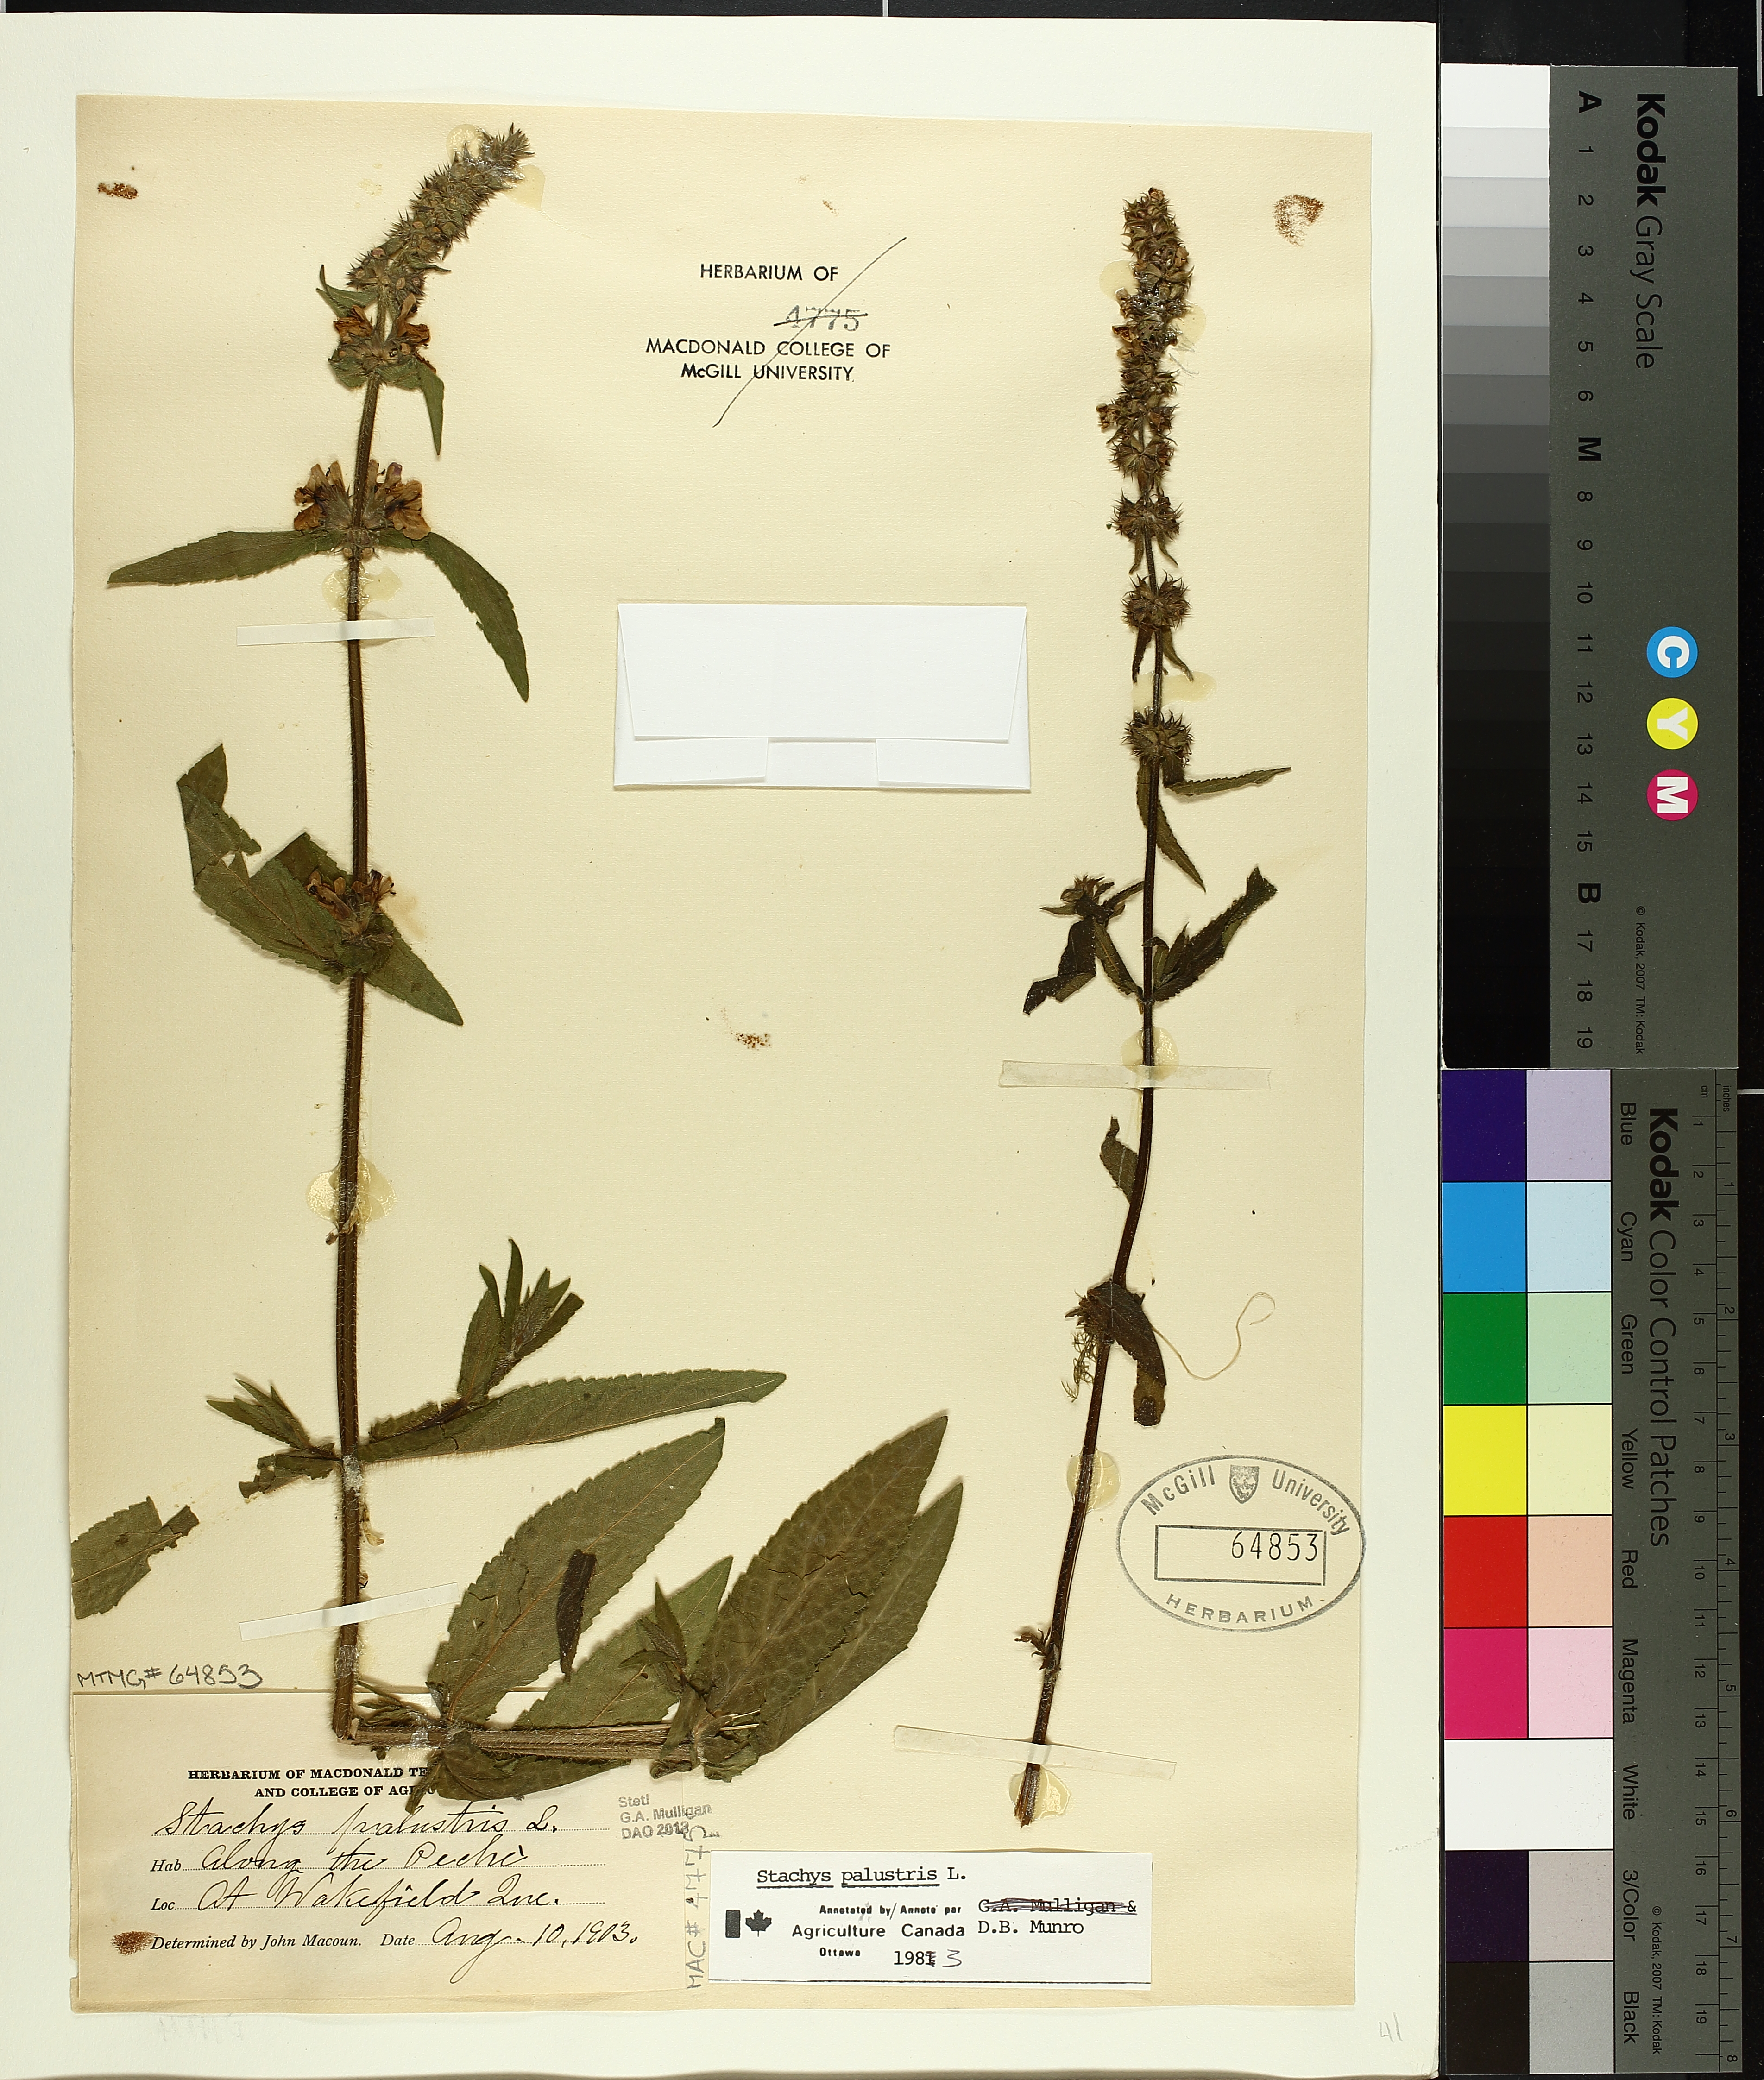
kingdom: Plantae
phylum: Tracheophyta
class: Magnoliopsida
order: Lamiales
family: Lamiaceae
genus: Stachys
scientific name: Stachys palustris
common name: Marsh woundwort
